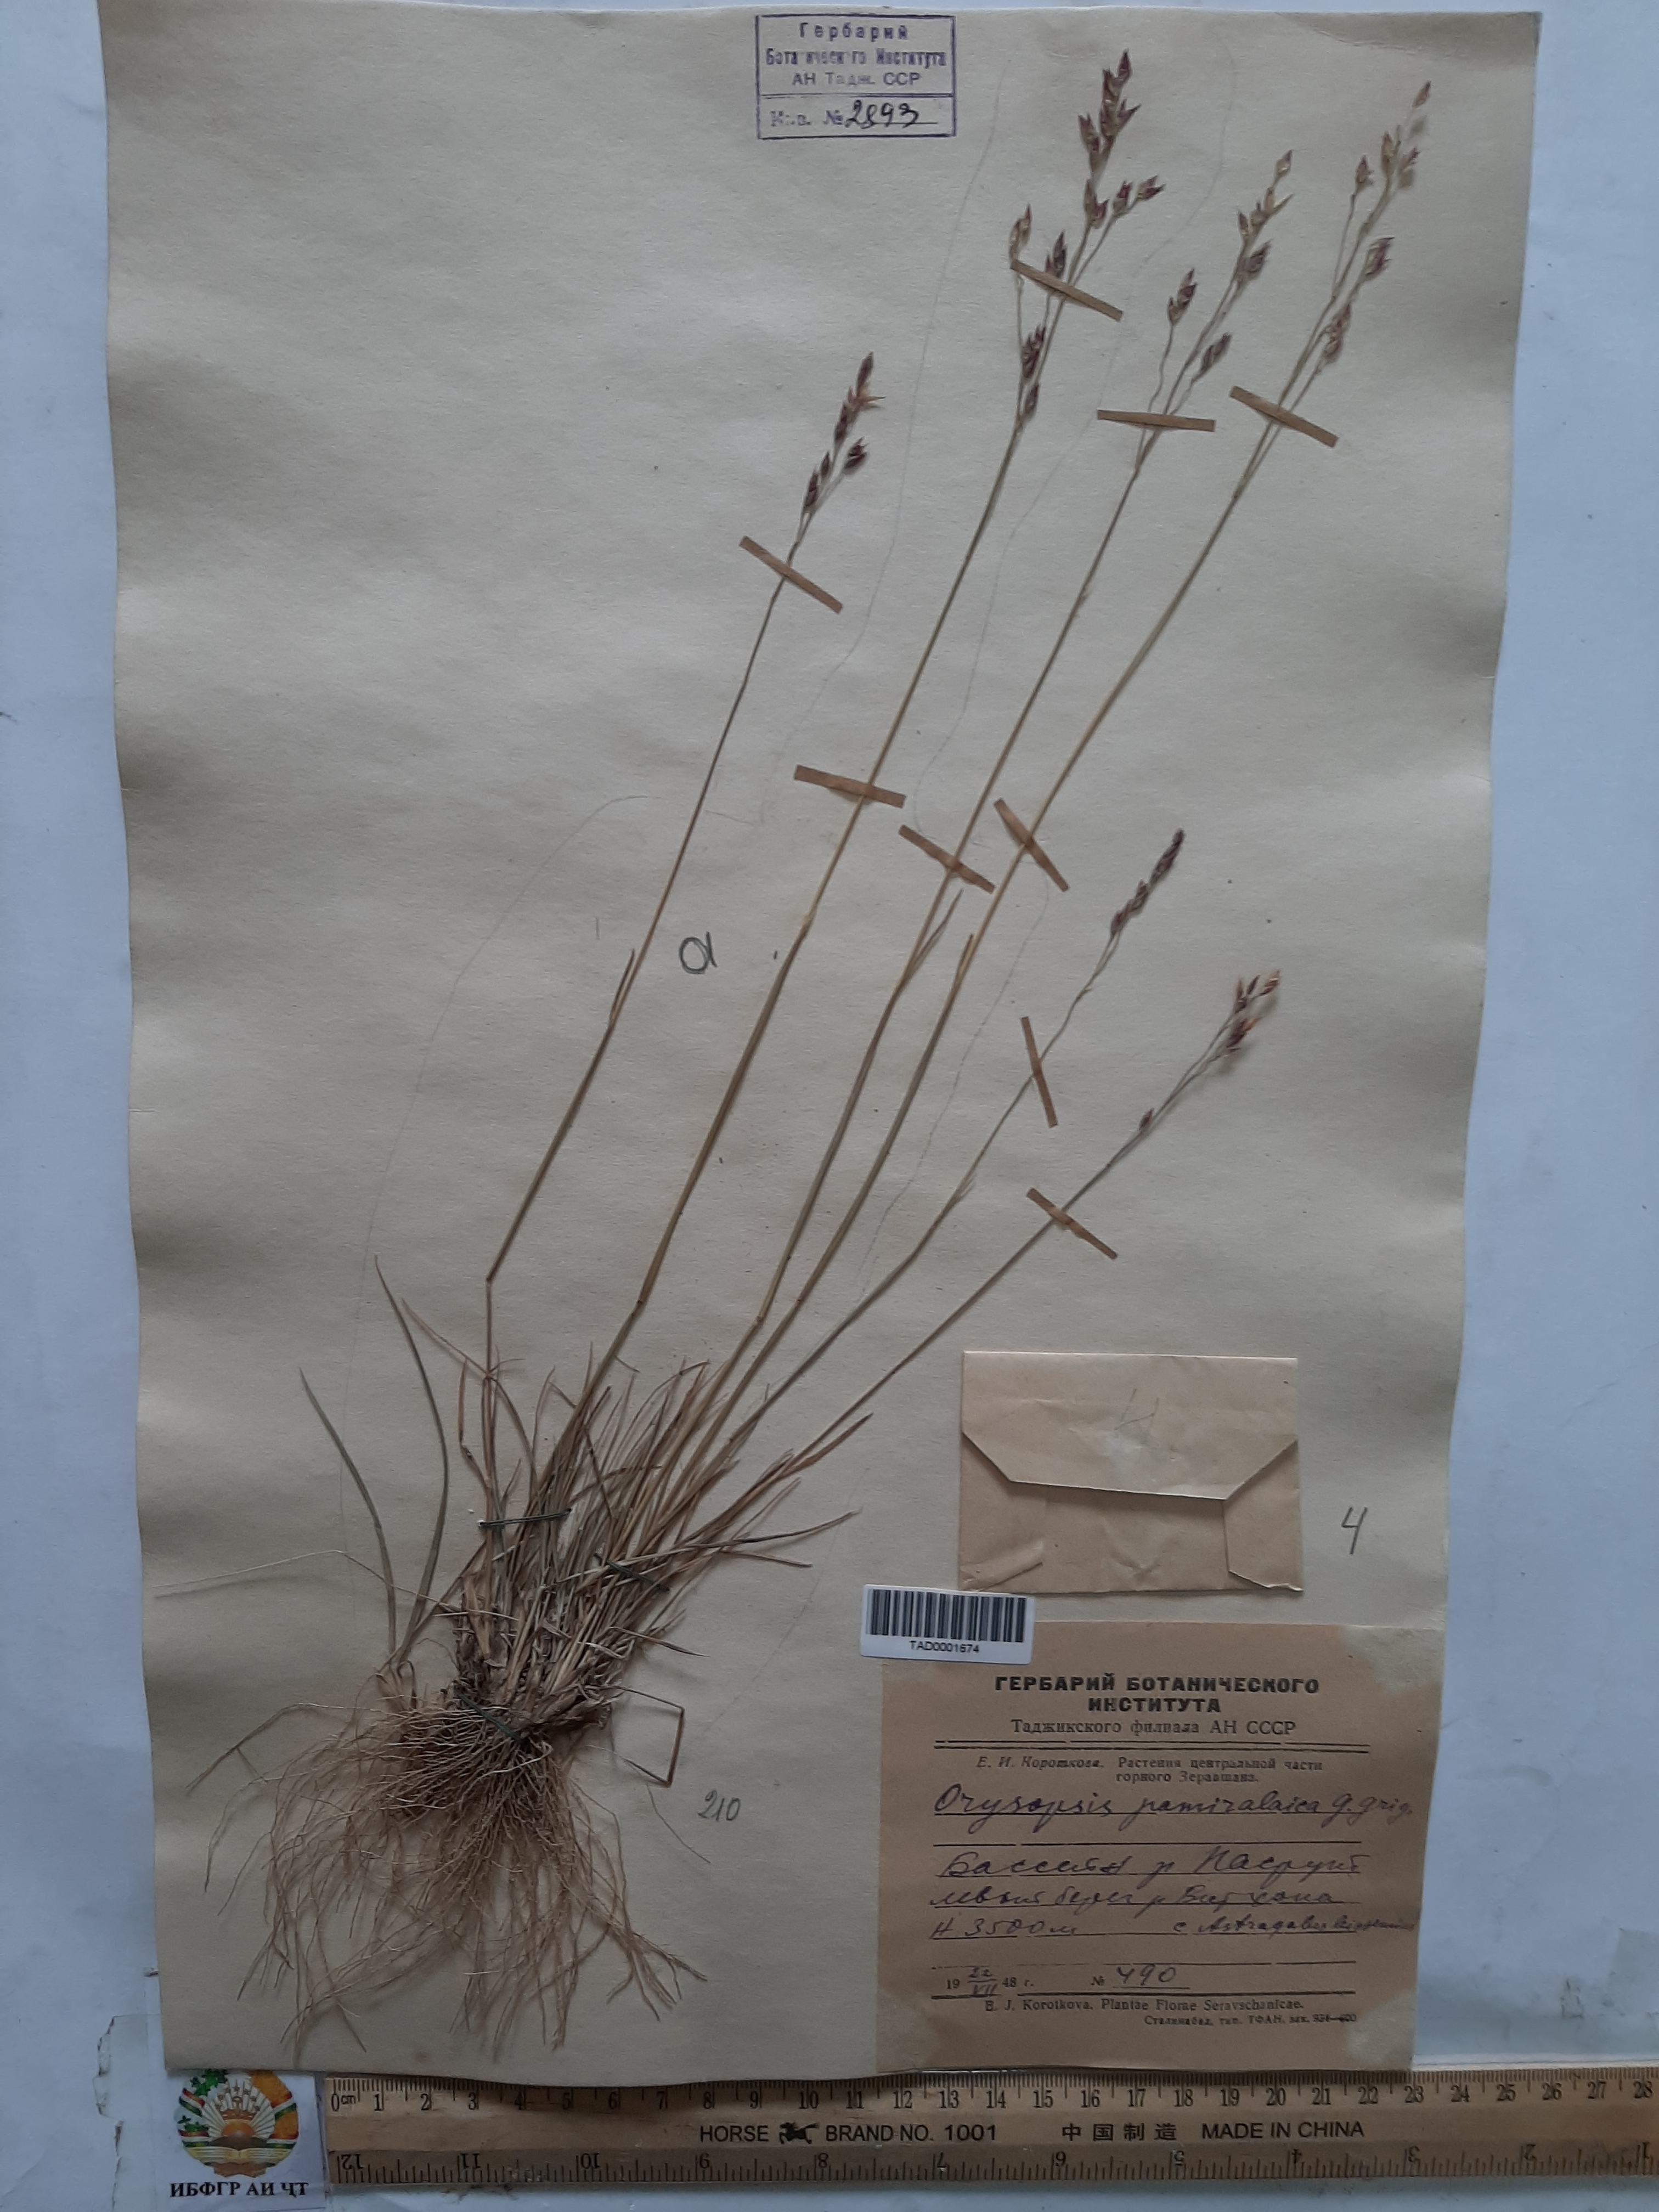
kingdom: Plantae
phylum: Tracheophyta
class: Liliopsida
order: Poales
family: Poaceae
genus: Piptatherum
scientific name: Piptatherum latifolium
